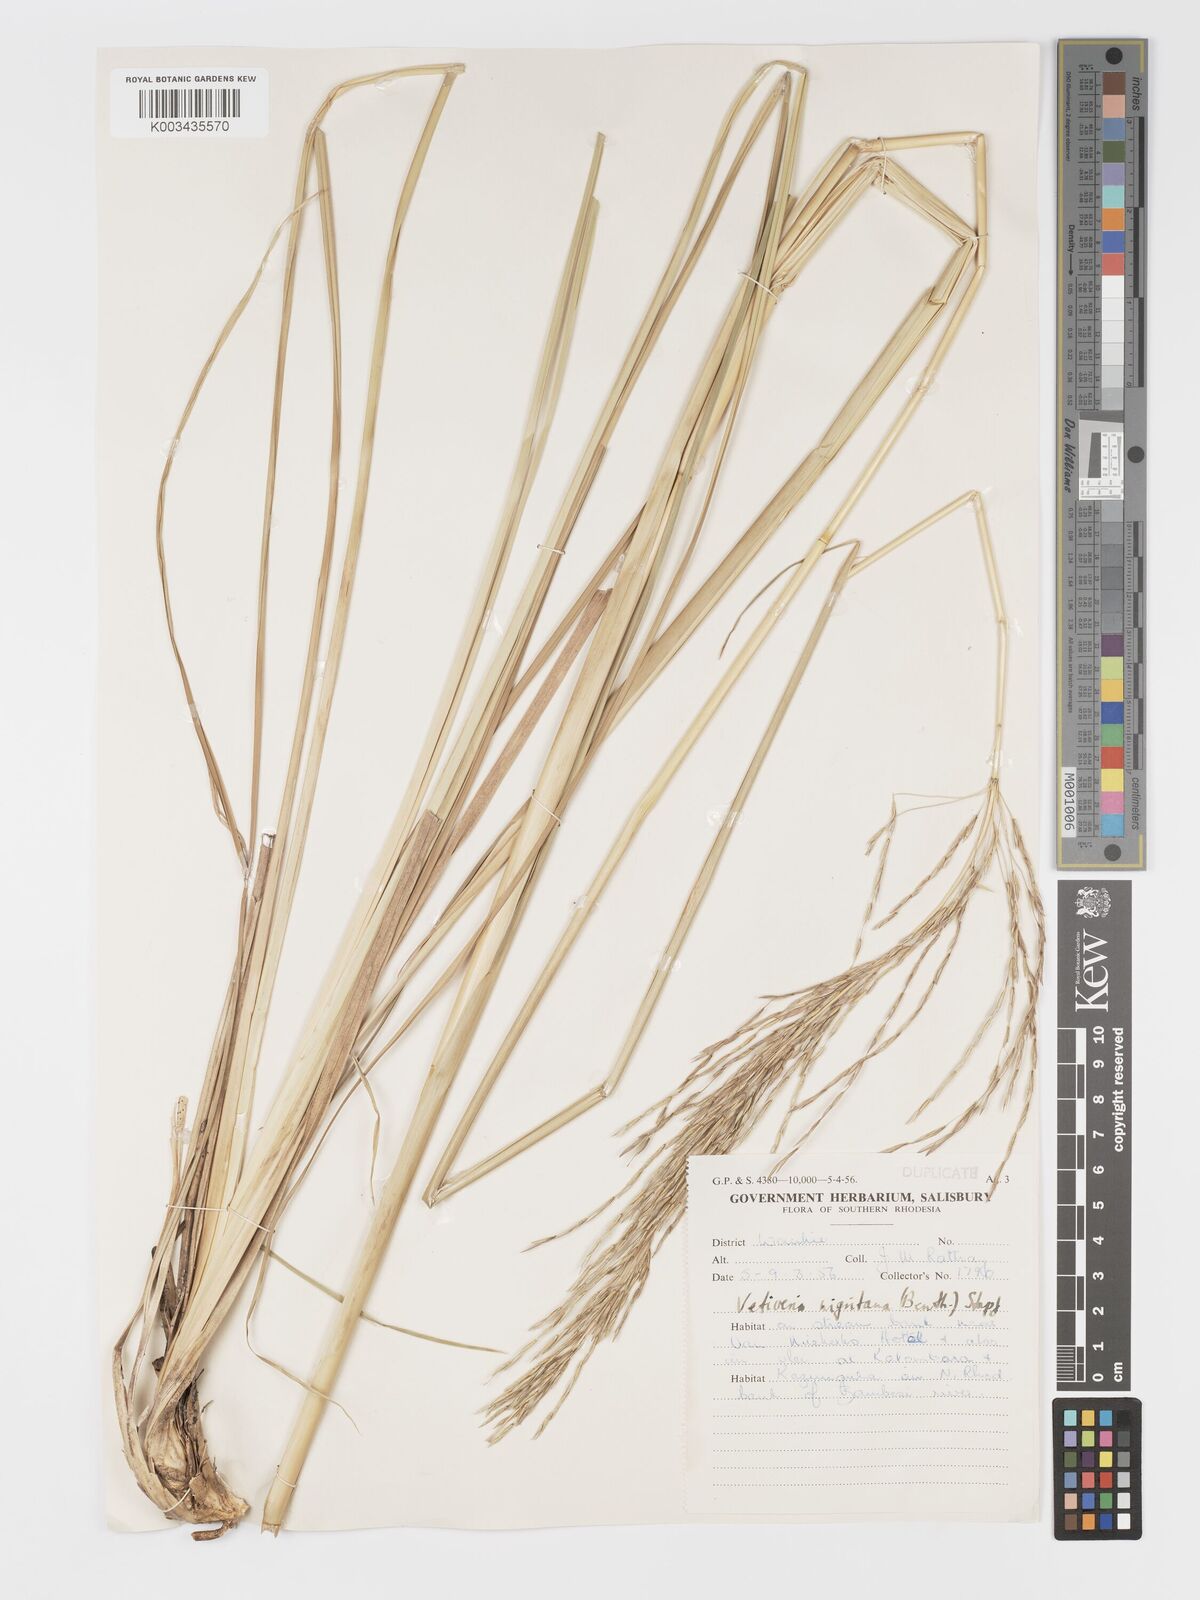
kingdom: Plantae
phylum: Tracheophyta
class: Liliopsida
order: Poales
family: Poaceae
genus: Chrysopogon
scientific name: Chrysopogon nigritanus
